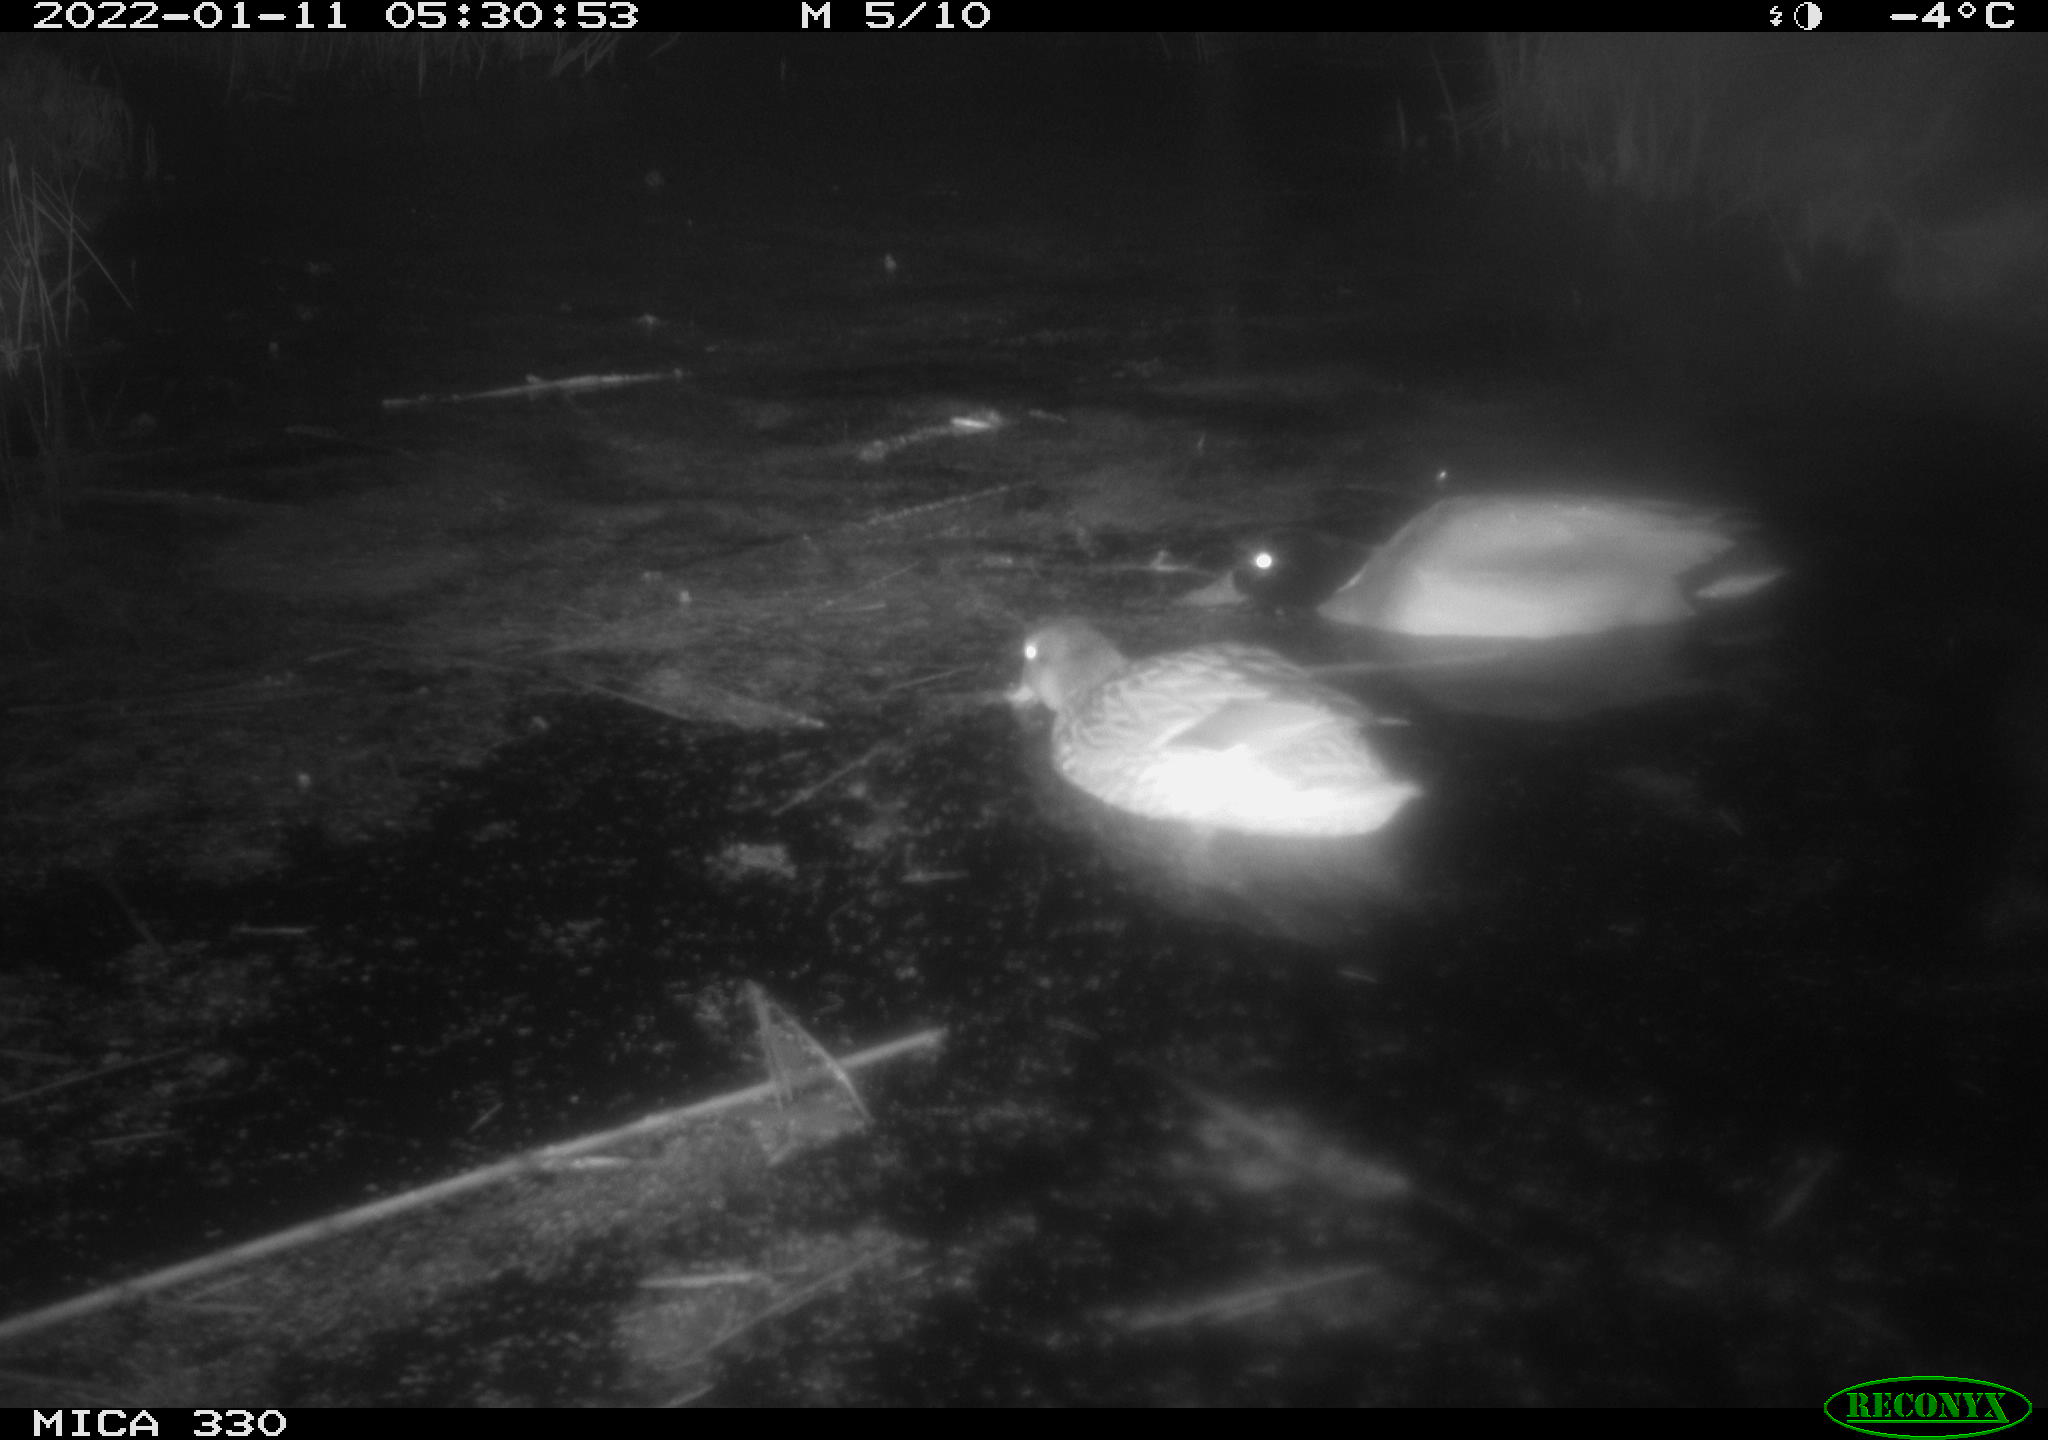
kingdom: Animalia
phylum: Chordata
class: Aves
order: Anseriformes
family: Anatidae
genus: Anas
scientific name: Anas platyrhynchos
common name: Mallard
